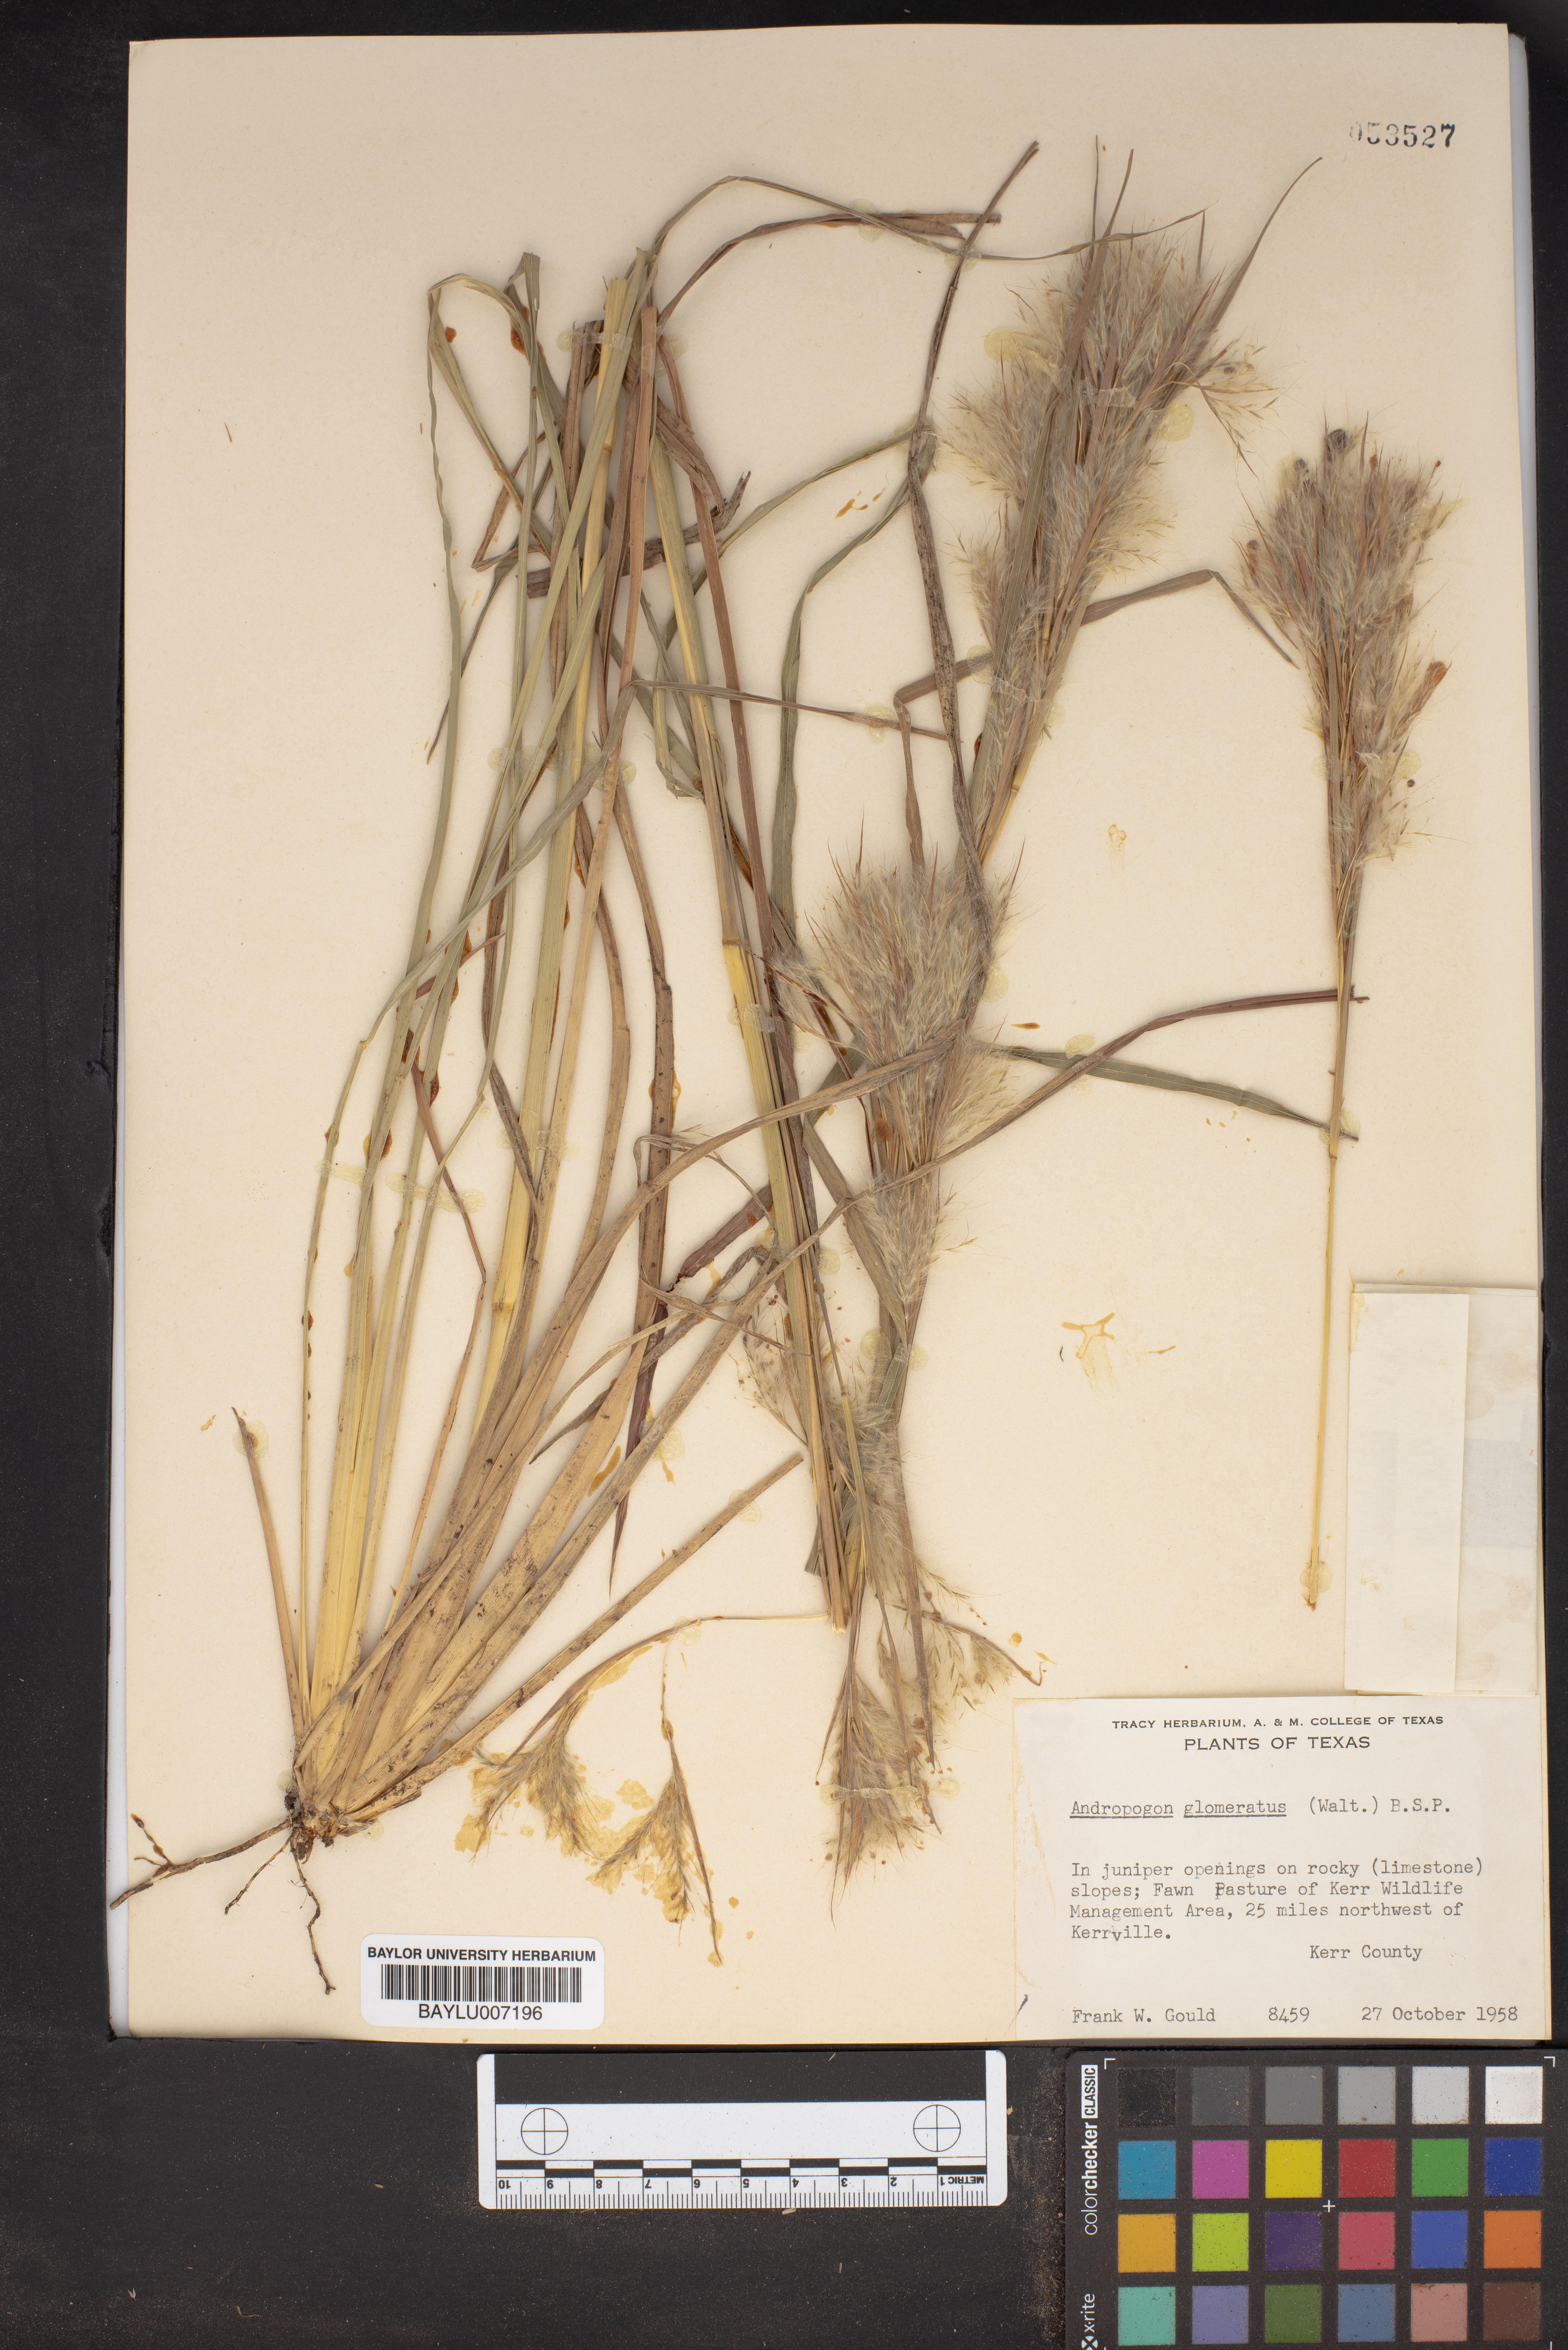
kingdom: Plantae
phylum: Tracheophyta
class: Liliopsida
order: Poales
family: Poaceae
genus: Andropogon
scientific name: Andropogon glomeratus
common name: Bushy beard grass
